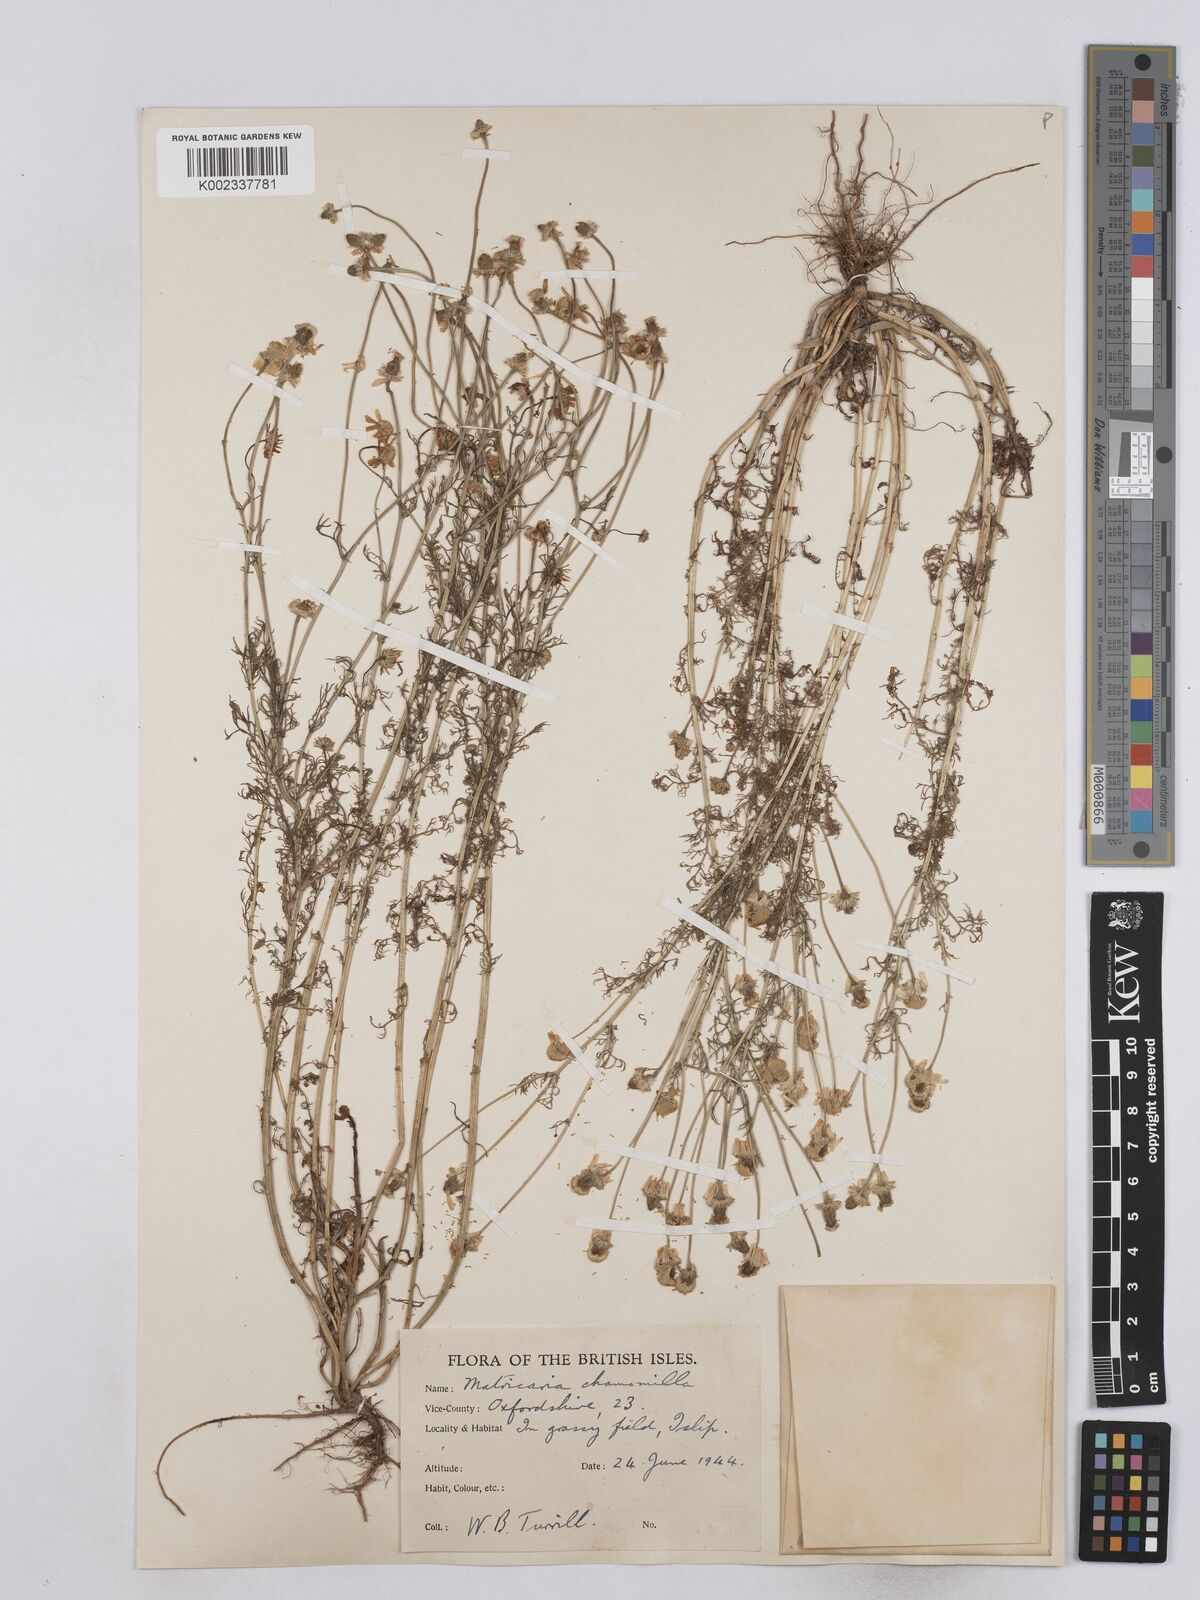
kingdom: Plantae
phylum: Tracheophyta
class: Magnoliopsida
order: Asterales
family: Asteraceae
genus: Matricaria
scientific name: Matricaria chamomilla
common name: Scented mayweed
